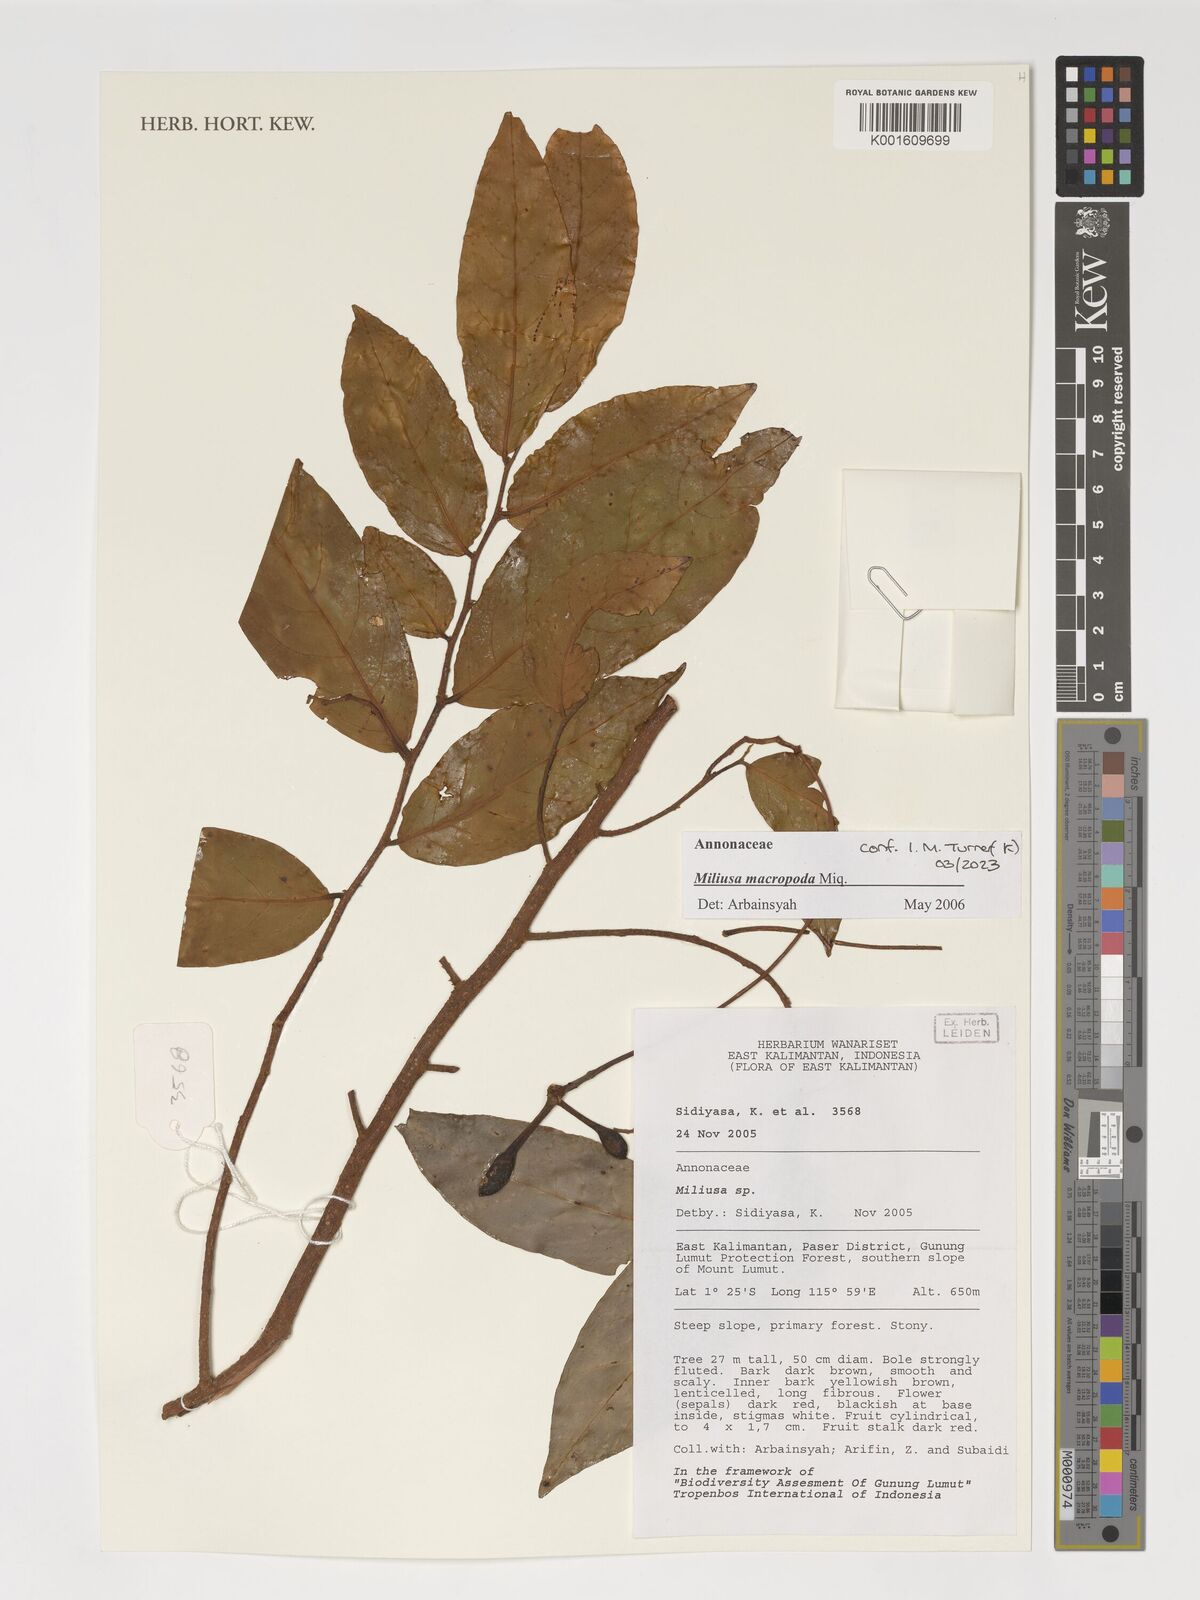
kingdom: Plantae
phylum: Tracheophyta
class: Magnoliopsida
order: Magnoliales
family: Annonaceae
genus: Miliusa
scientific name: Miliusa macropoda
